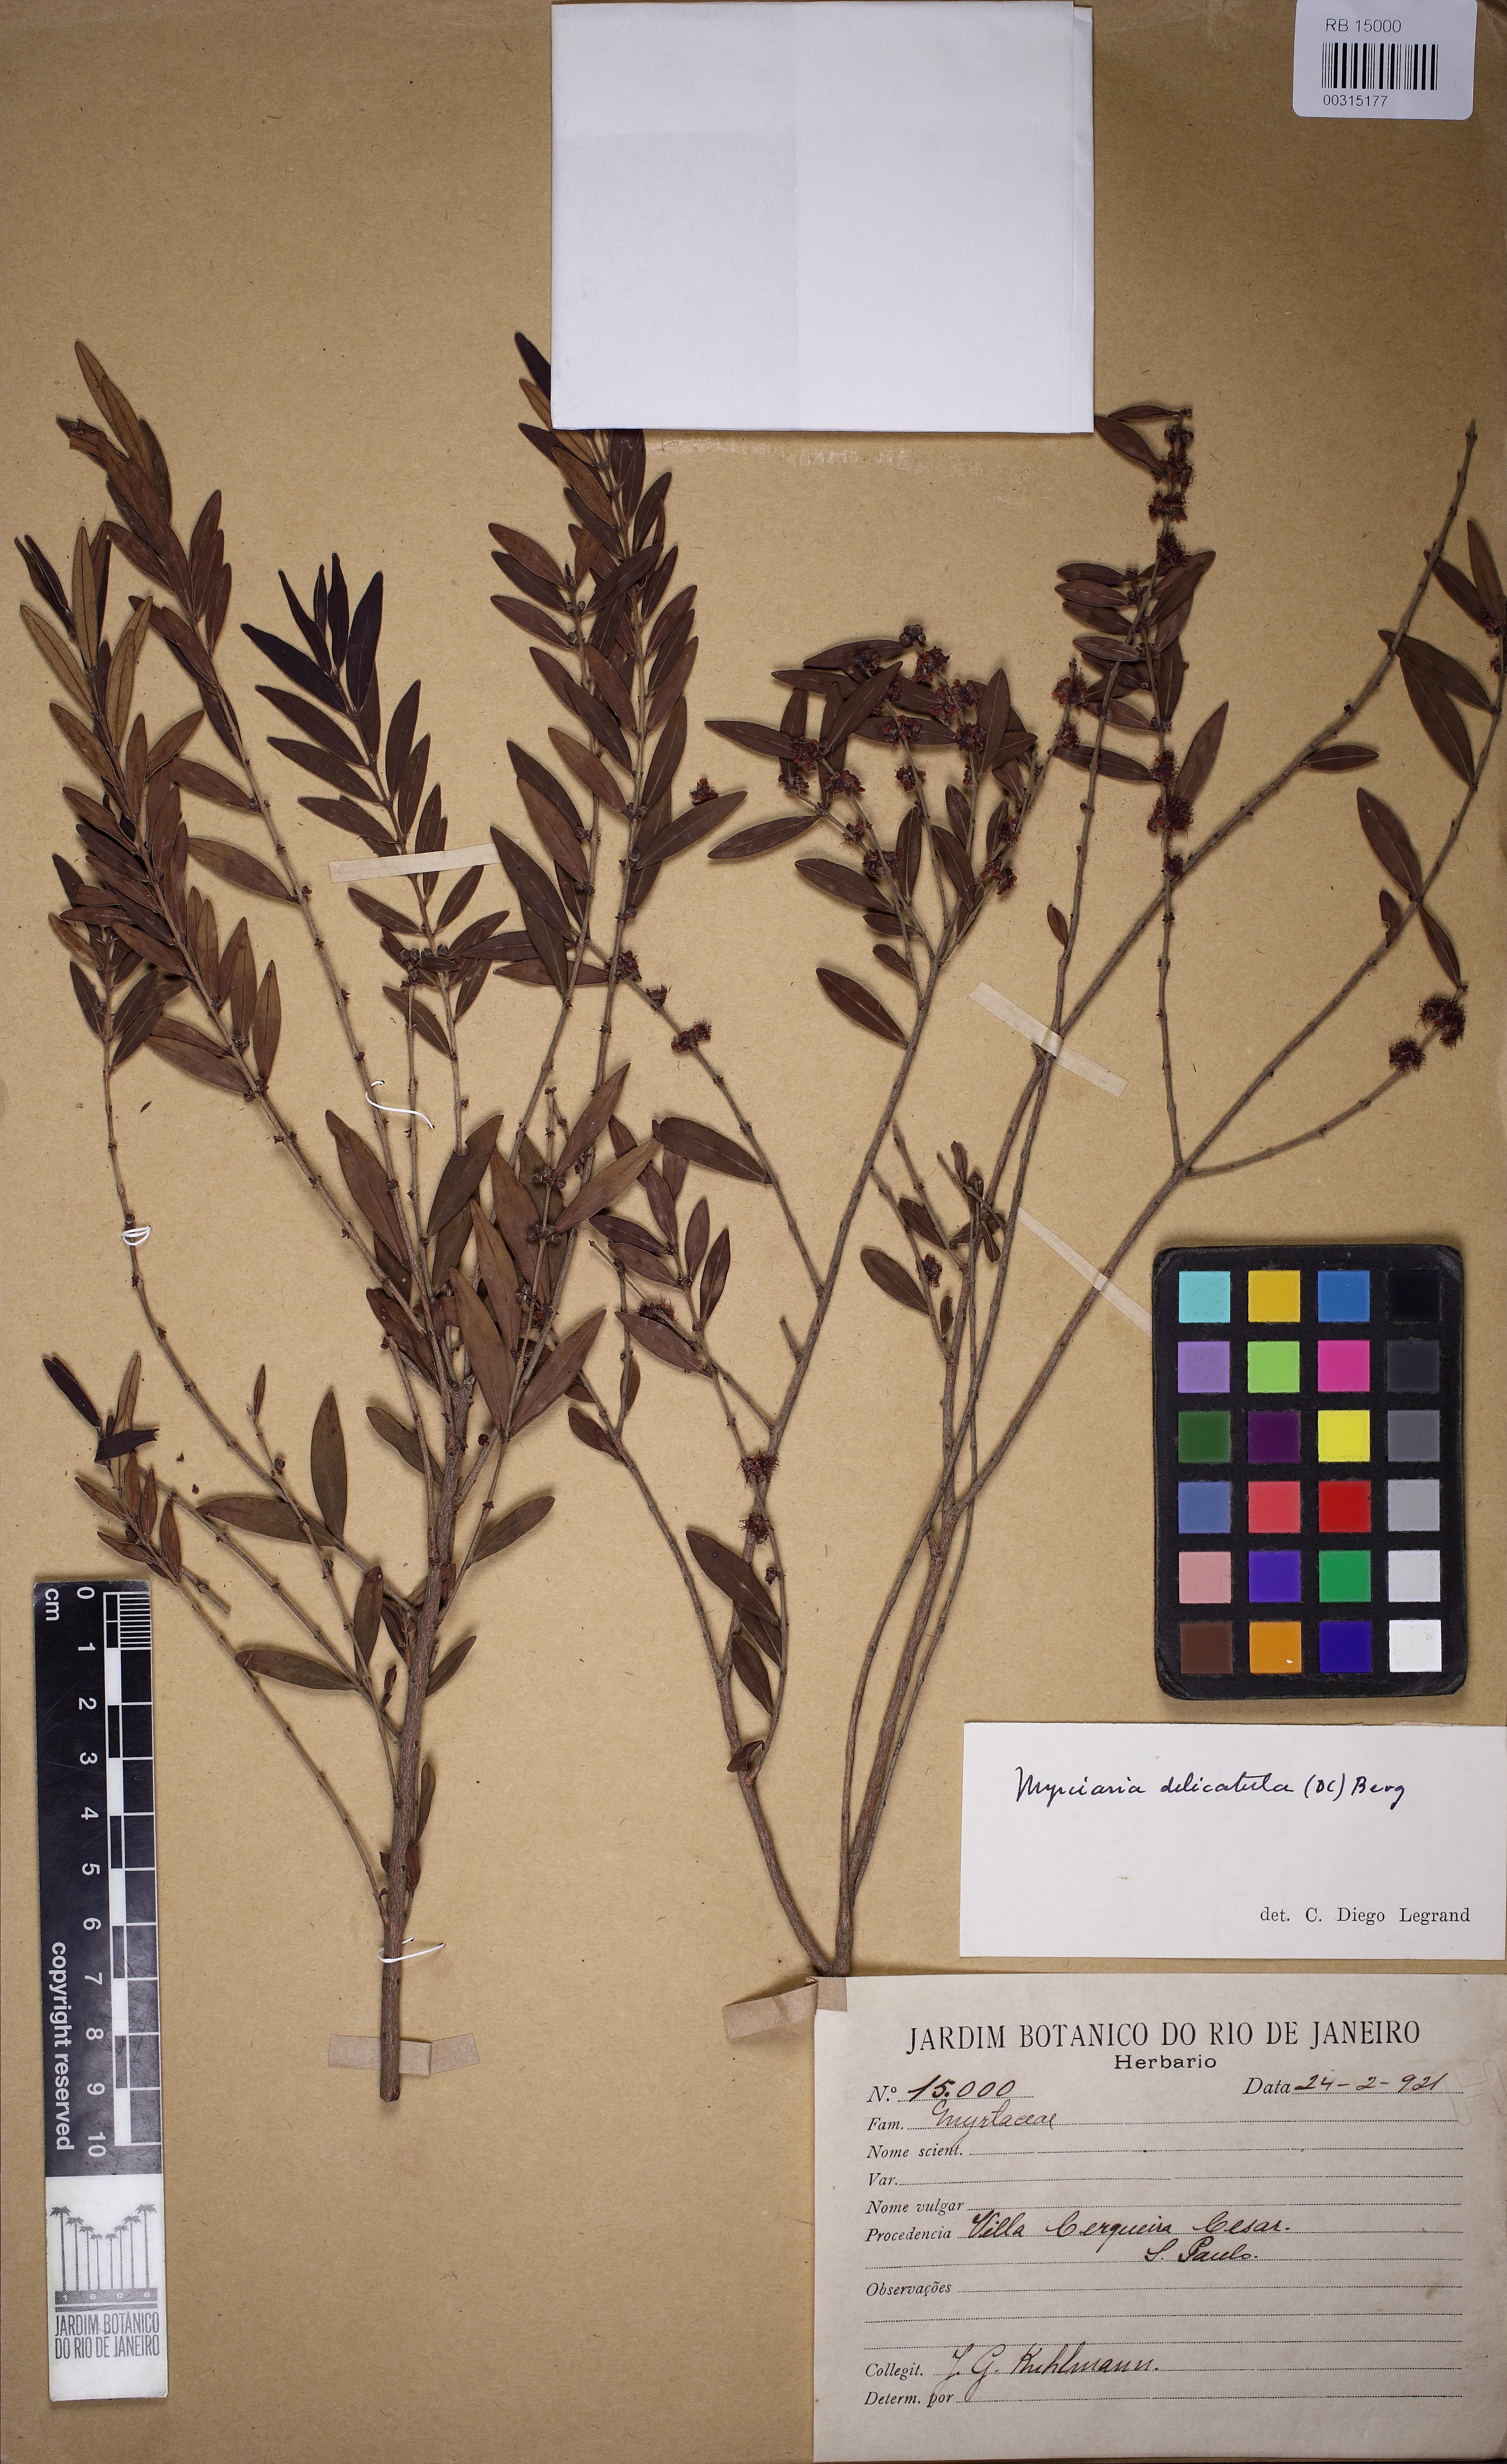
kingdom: Plantae
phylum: Tracheophyta
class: Magnoliopsida
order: Myrtales
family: Myrtaceae
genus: Myrciaria
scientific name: Myrciaria delicatula
